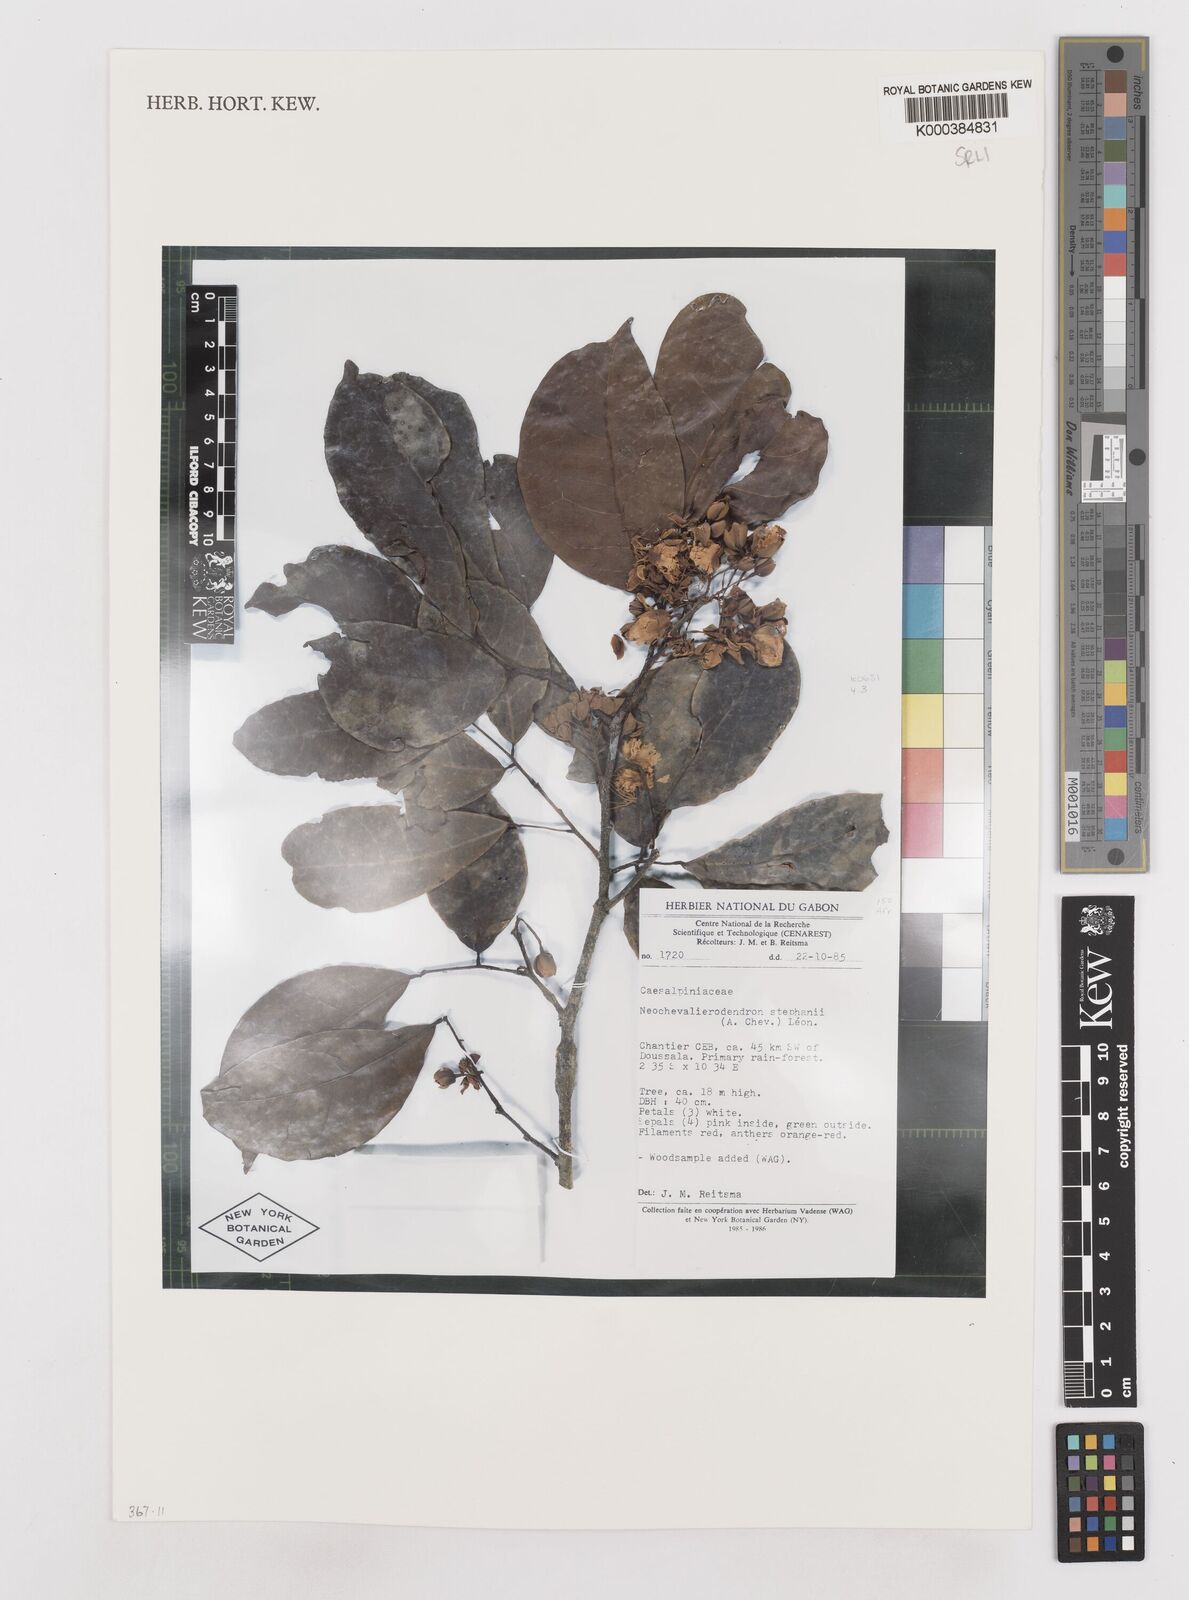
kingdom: Plantae
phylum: Tracheophyta
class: Magnoliopsida
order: Fabales
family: Fabaceae
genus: Neochevalierodendron
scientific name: Neochevalierodendron stephanii
